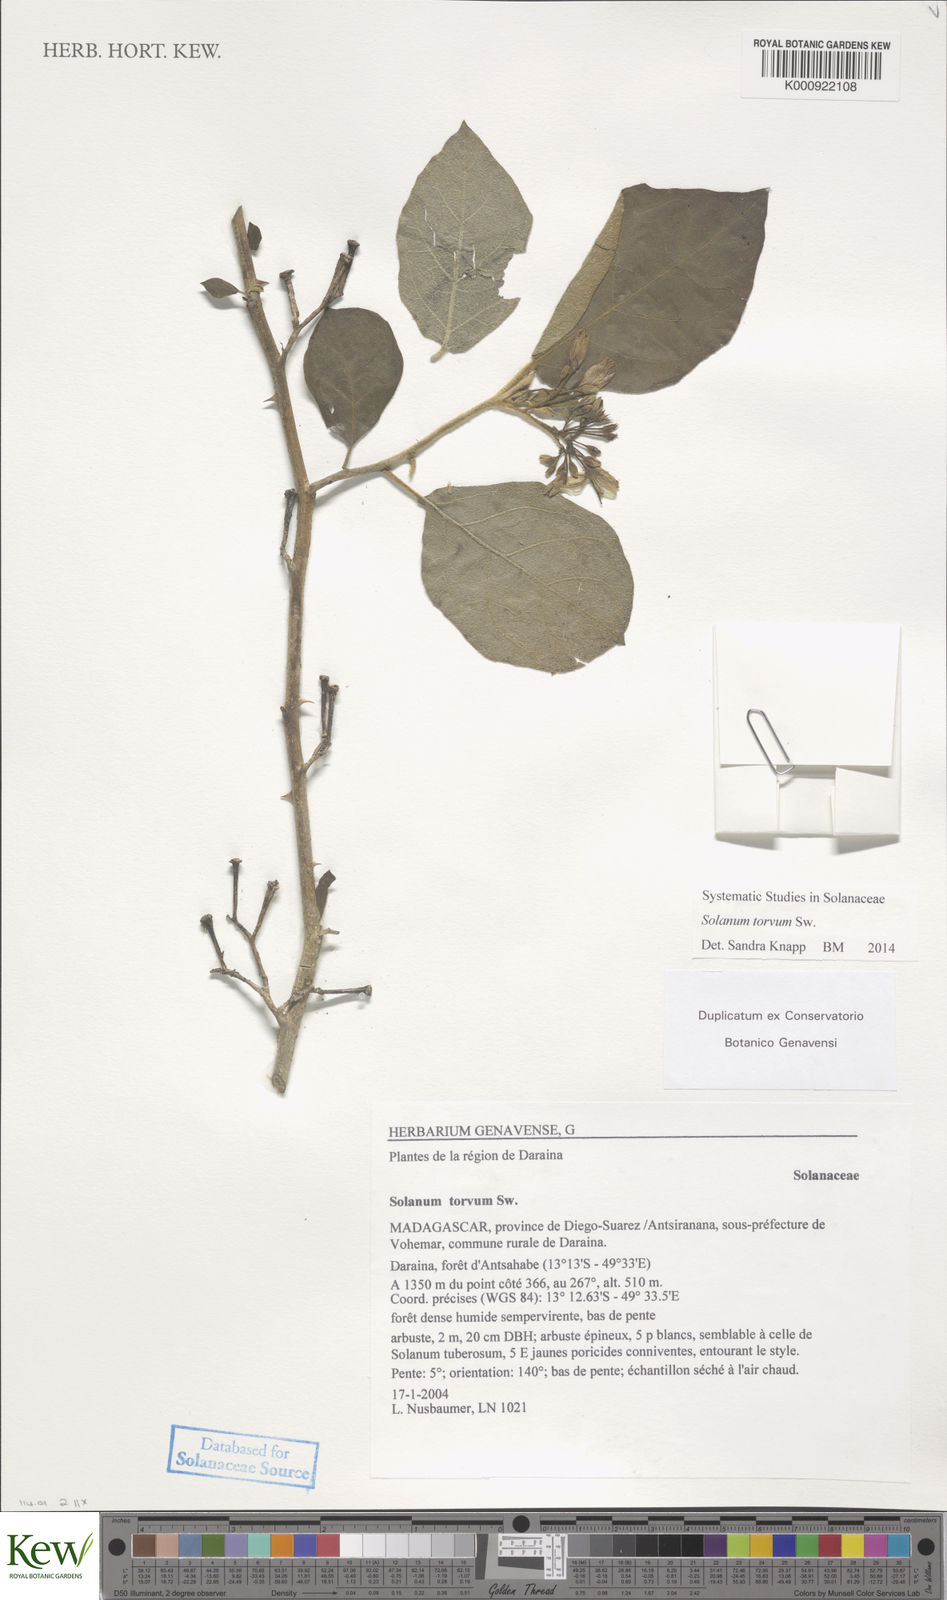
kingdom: Plantae
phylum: Tracheophyta
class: Magnoliopsida
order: Solanales
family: Solanaceae
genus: Solanum
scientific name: Solanum torvum
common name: Turkey berry
